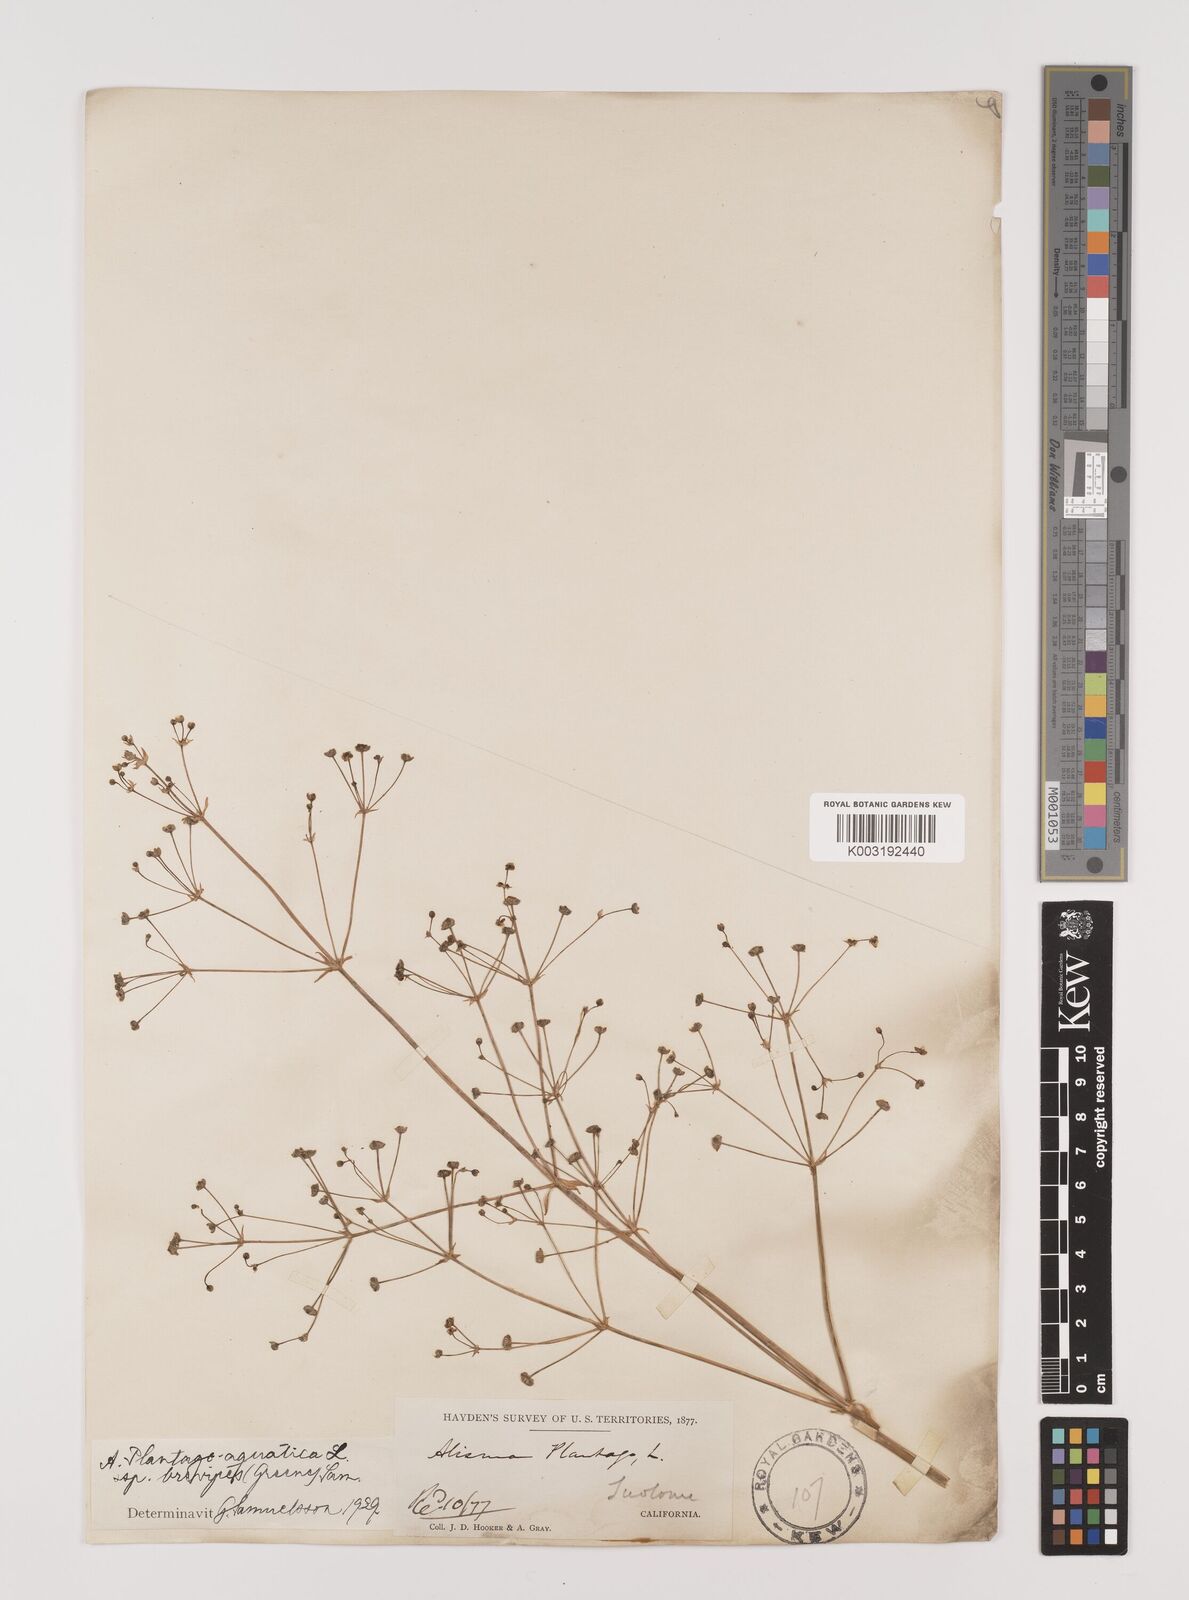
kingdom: Plantae
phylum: Tracheophyta
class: Liliopsida
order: Alismatales
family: Alismataceae
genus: Alisma
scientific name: Alisma triviale
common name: Northern water-plantain
